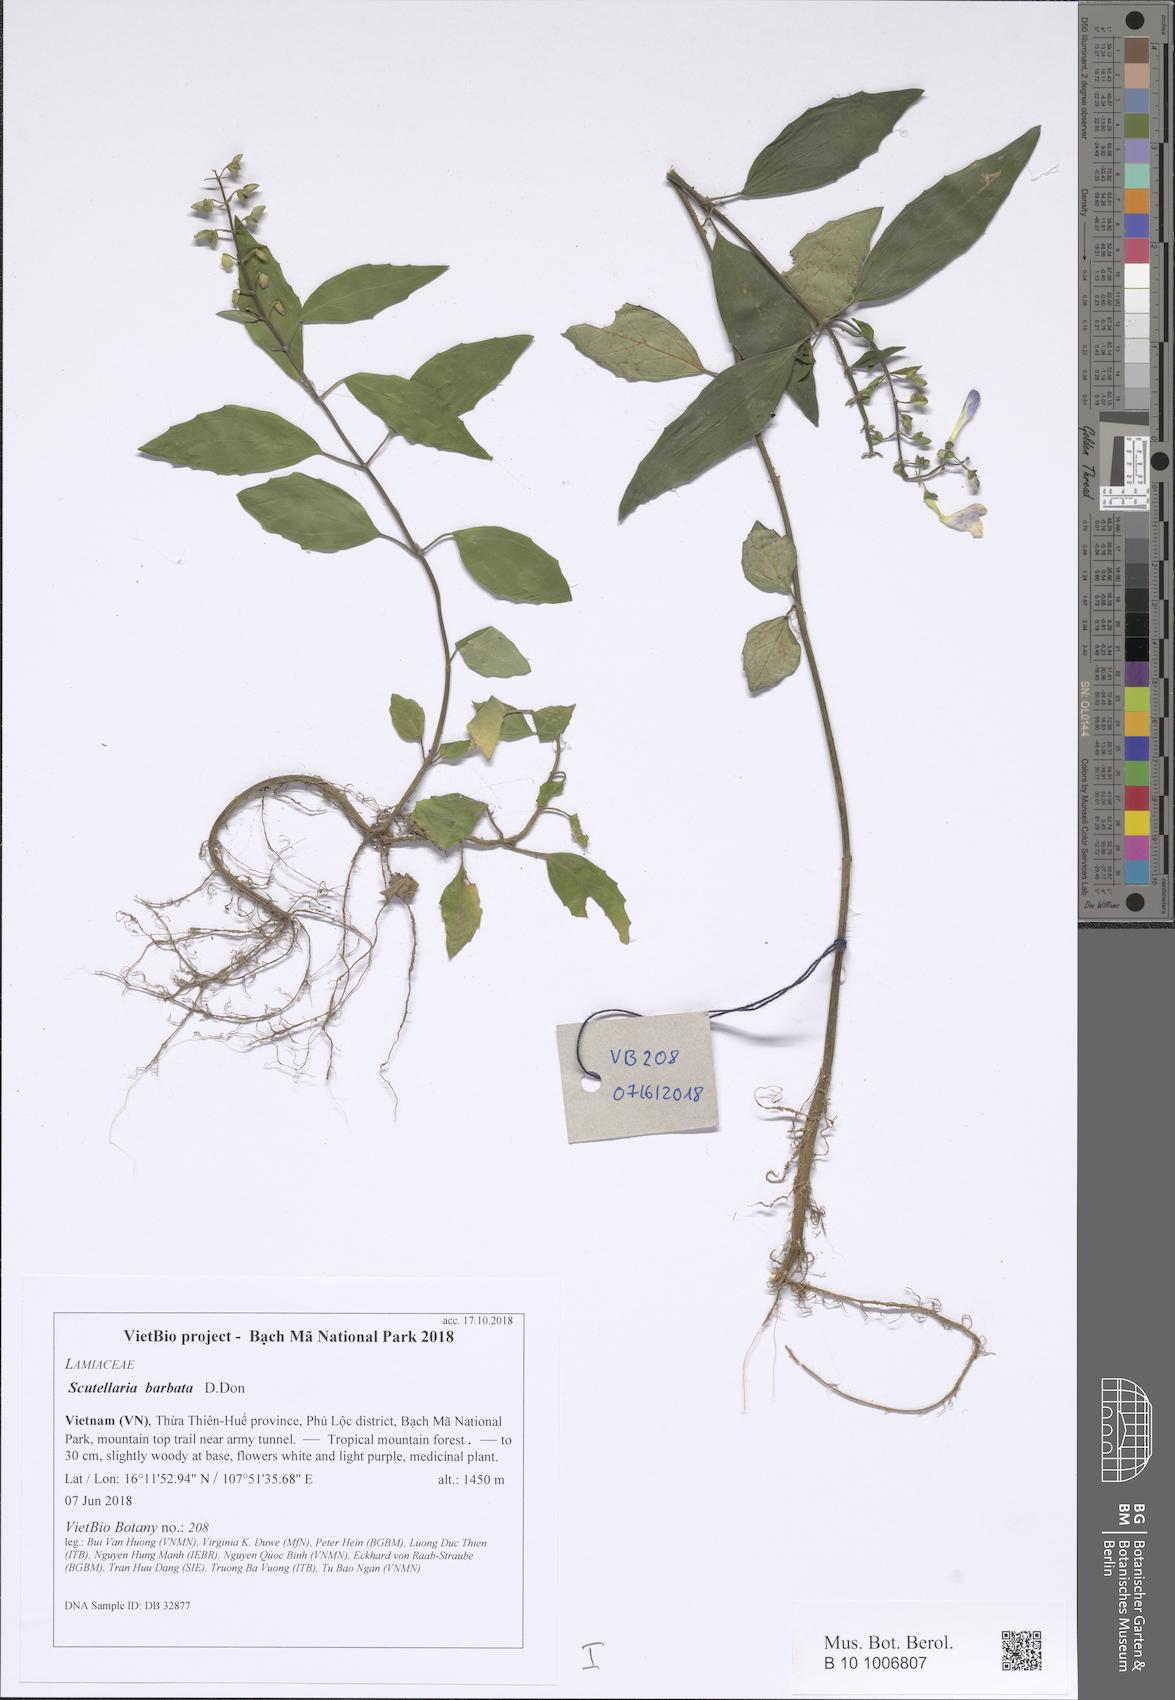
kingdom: Plantae
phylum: Tracheophyta
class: Magnoliopsida
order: Lamiales
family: Lamiaceae
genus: Scutellaria
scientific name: Scutellaria barbata
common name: Barbed skullcap
